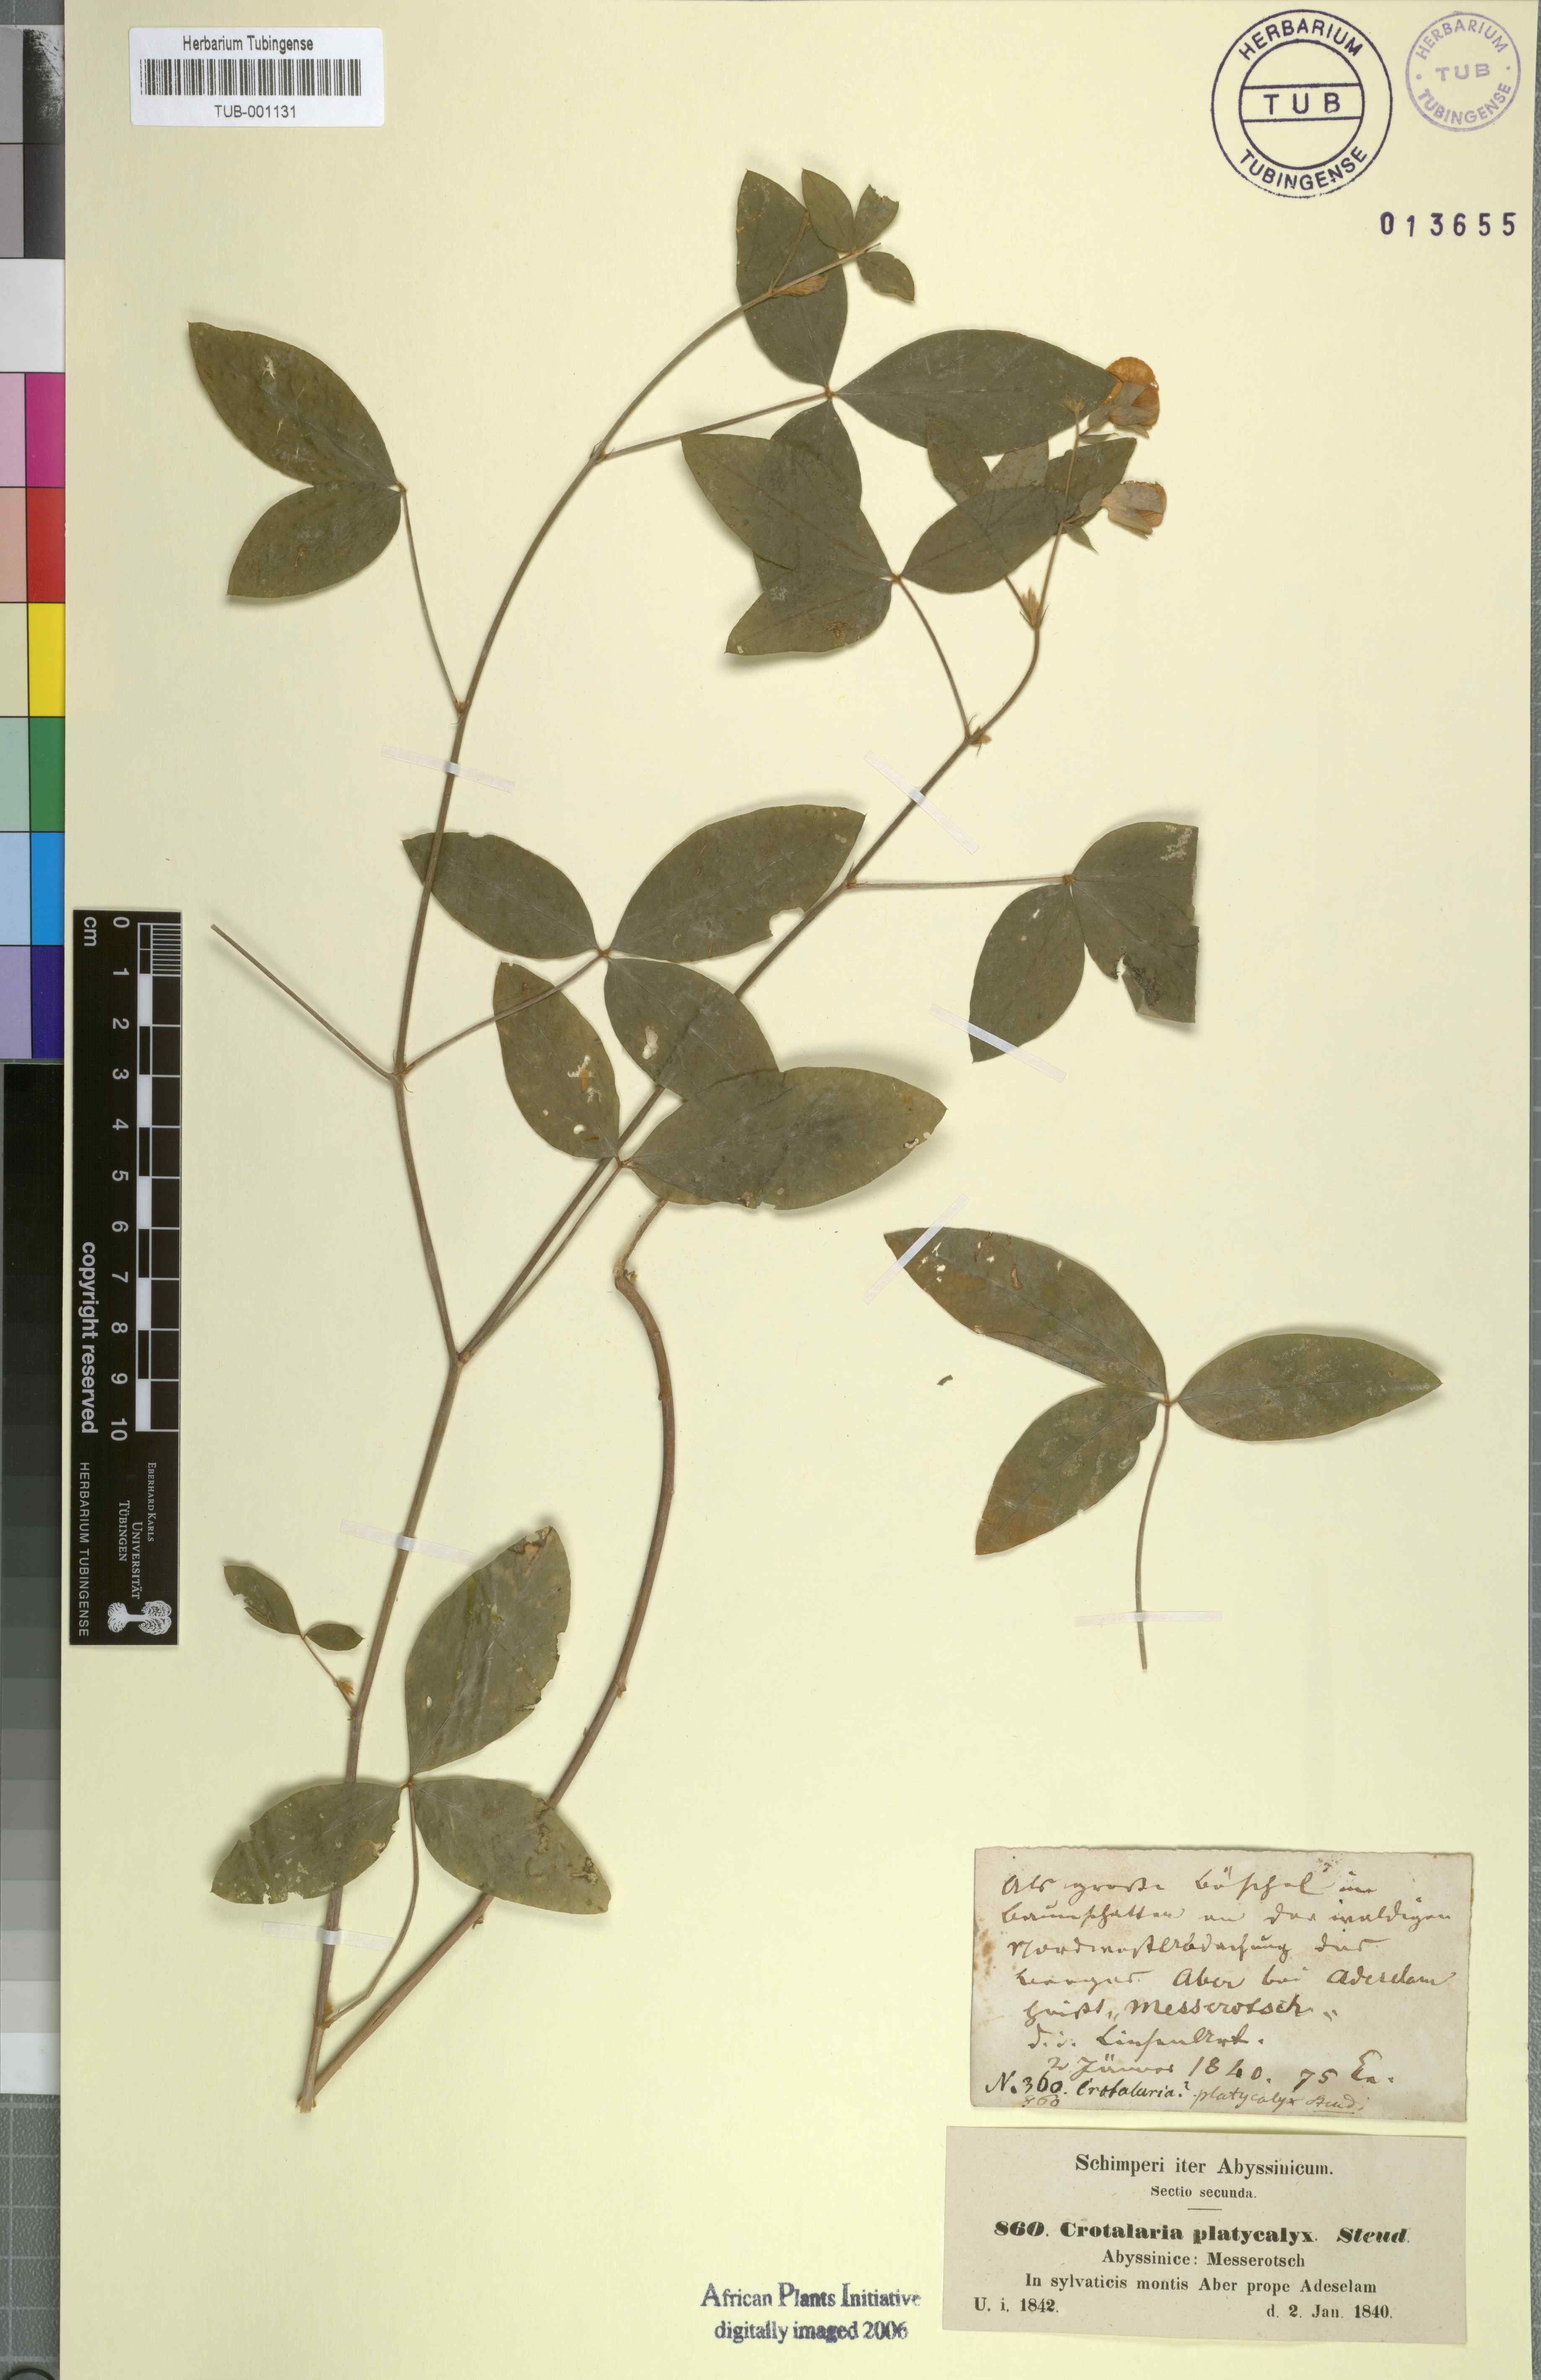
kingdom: Plantae
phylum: Tracheophyta
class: Magnoliopsida
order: Fabales
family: Fabaceae
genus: Crotalaria
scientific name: Crotalaria quartiniana
